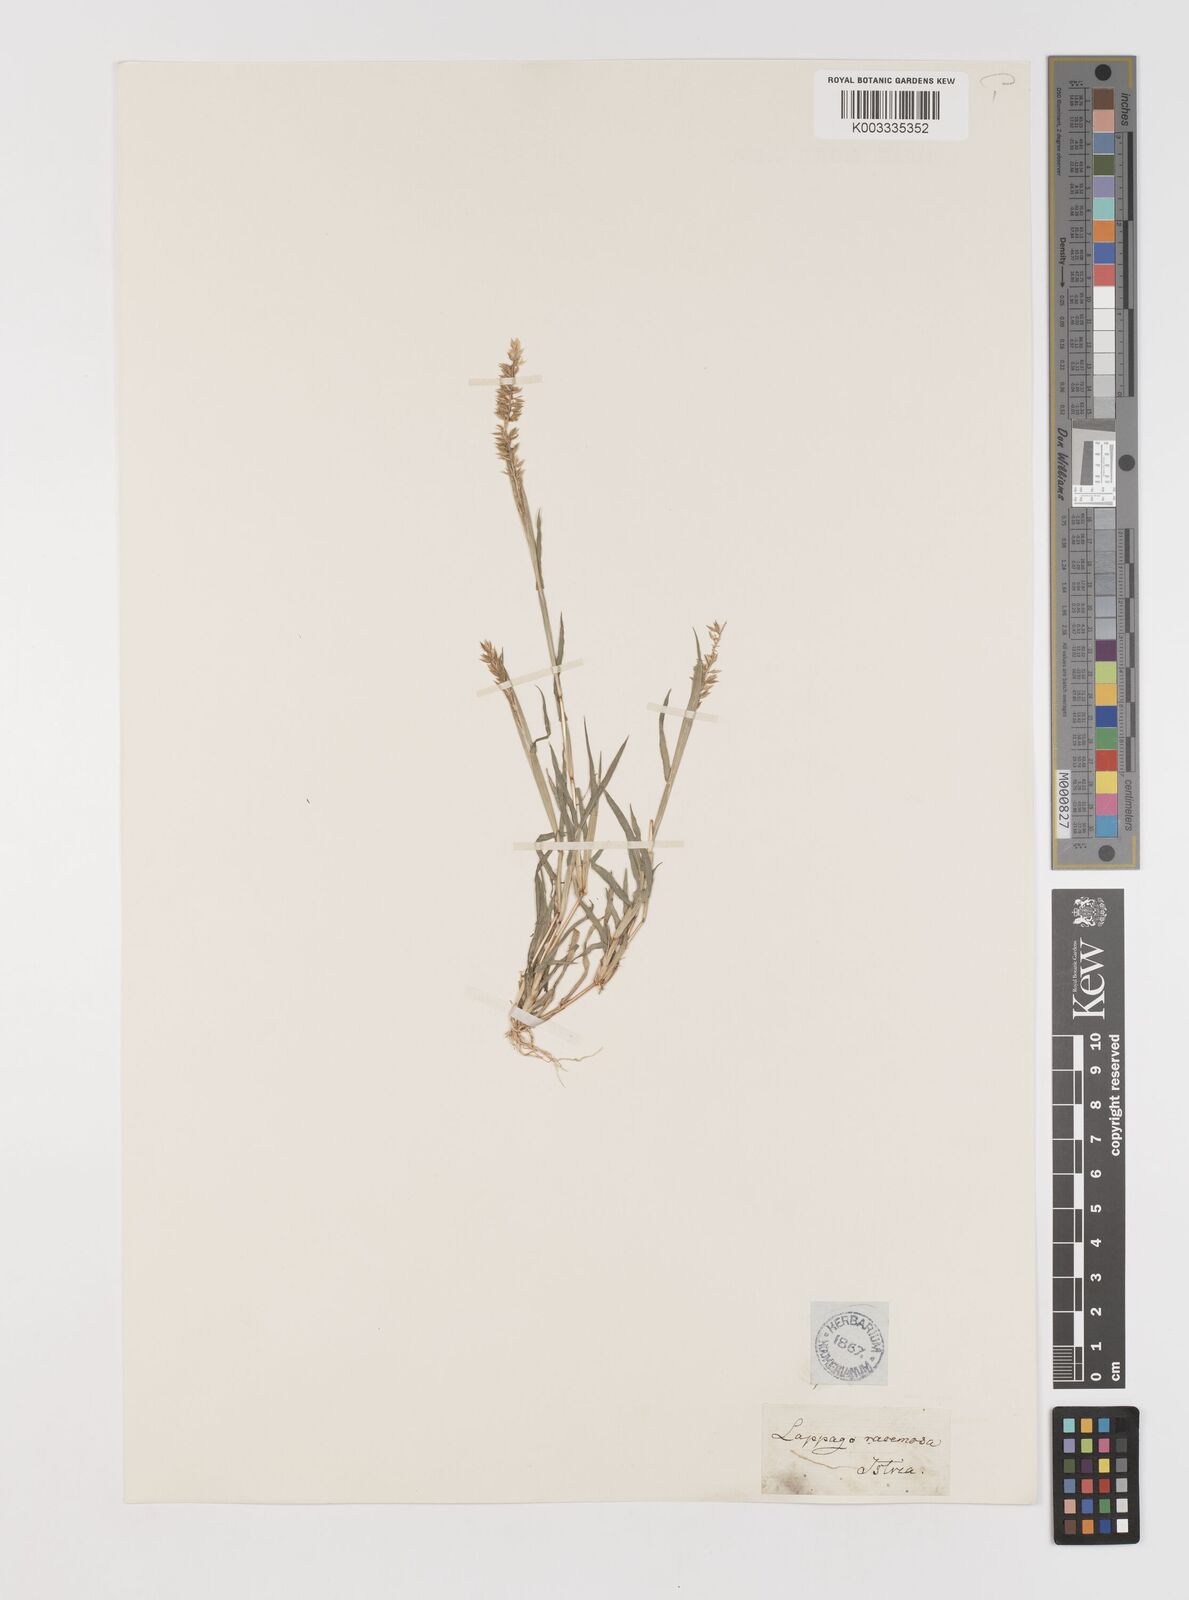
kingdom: Plantae
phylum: Tracheophyta
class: Liliopsida
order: Poales
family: Poaceae
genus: Tragus
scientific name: Tragus racemosus
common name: European bur-grass
